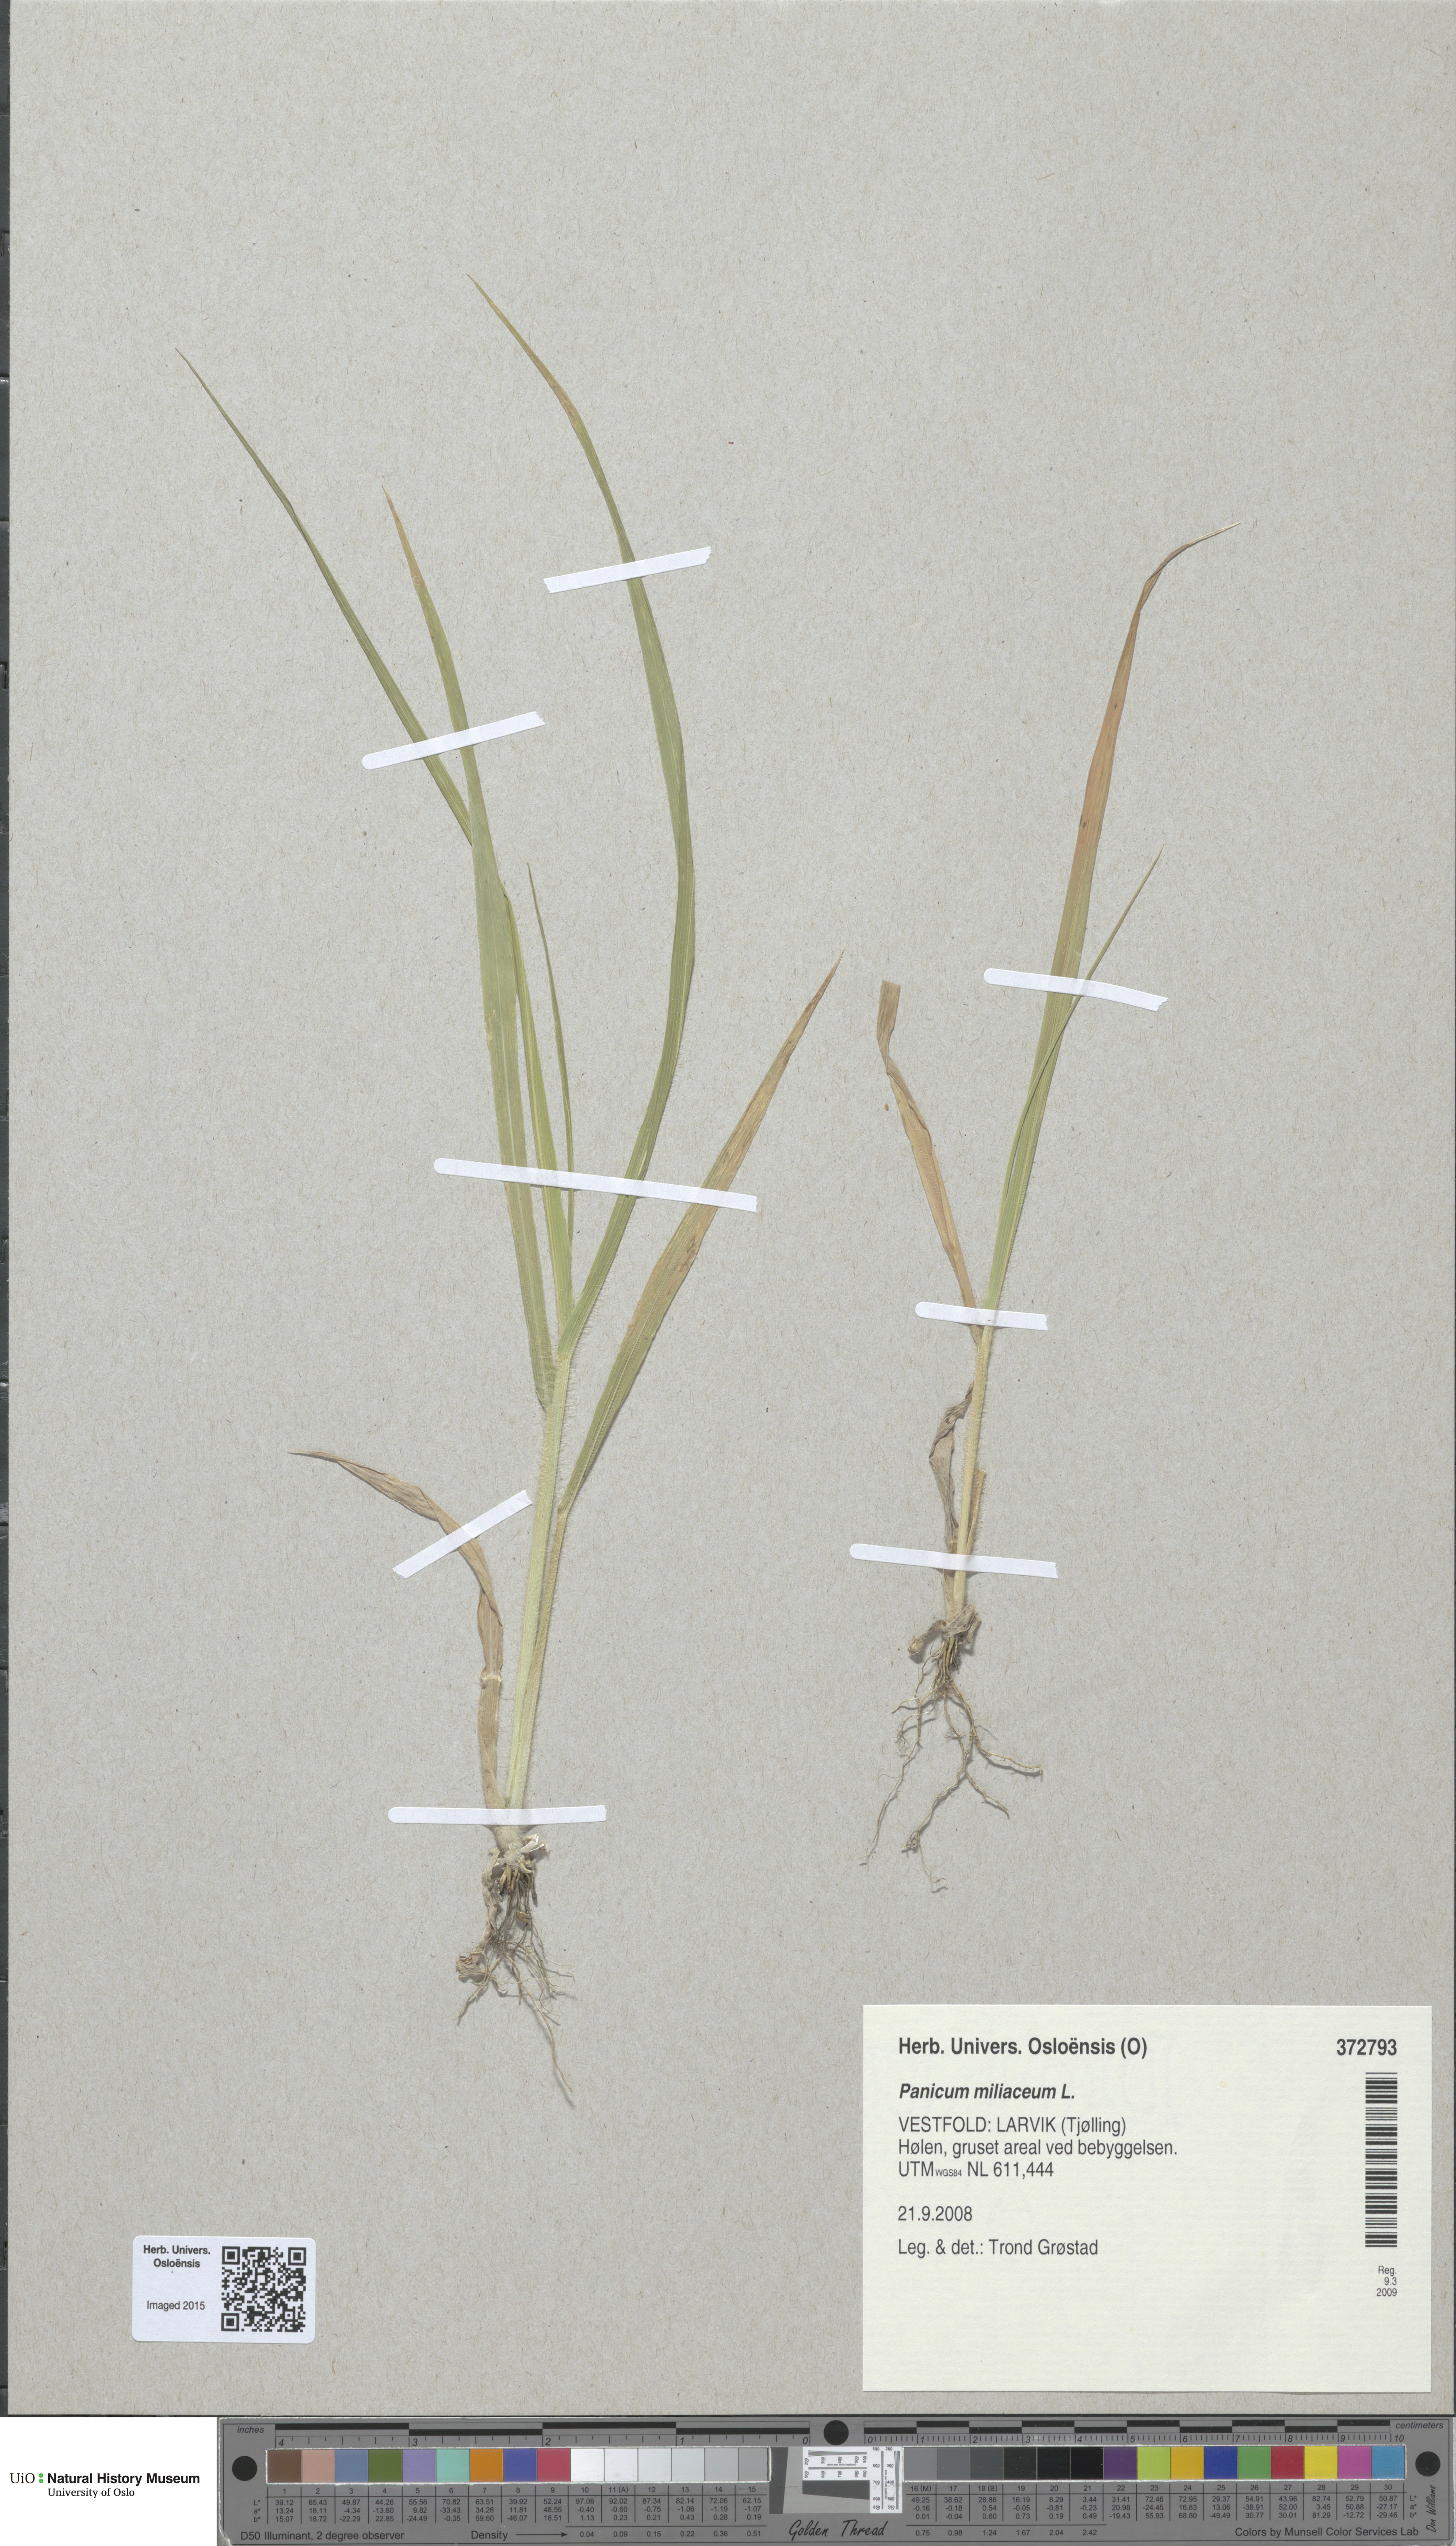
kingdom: Plantae
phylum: Tracheophyta
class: Liliopsida
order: Poales
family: Poaceae
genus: Panicum
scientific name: Panicum miliaceum
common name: Common millet
